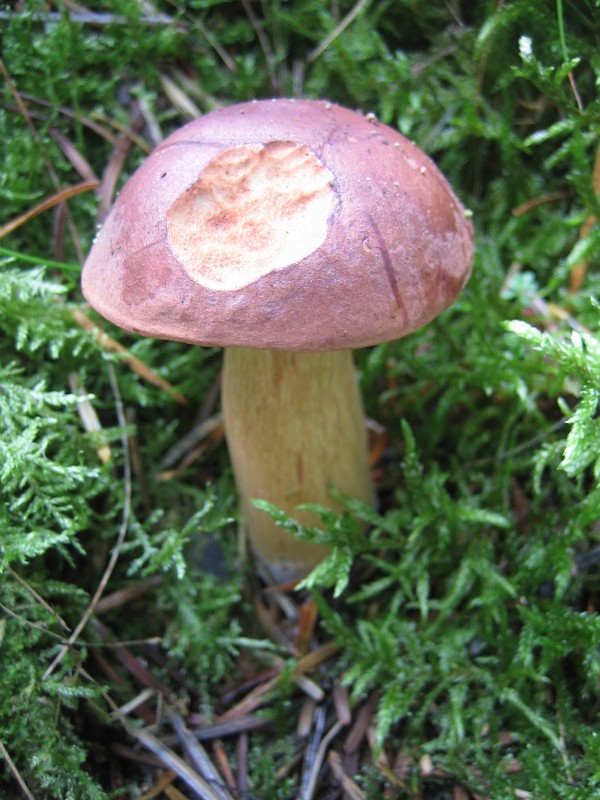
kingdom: Fungi
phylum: Basidiomycota
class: Agaricomycetes
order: Boletales
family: Boletaceae
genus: Imleria
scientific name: Imleria badia
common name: brunstokket rørhat
